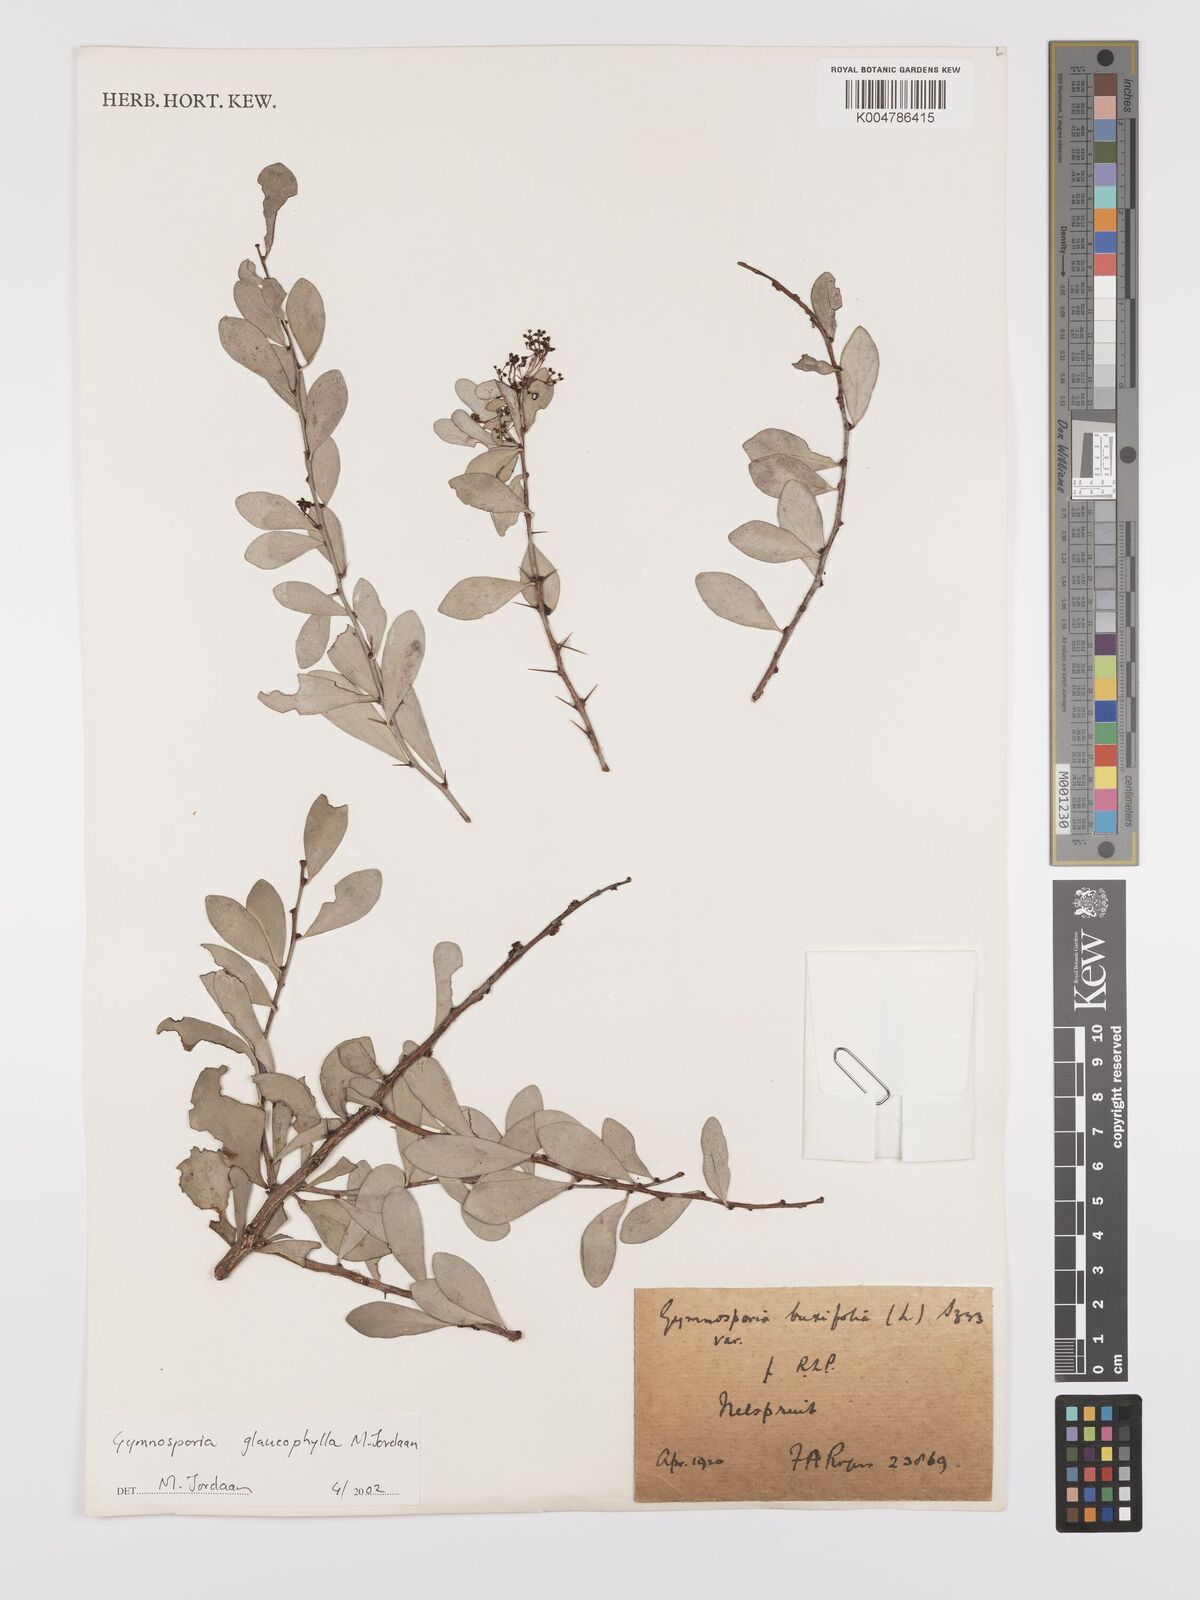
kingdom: Plantae
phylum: Tracheophyta
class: Magnoliopsida
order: Celastrales
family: Celastraceae
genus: Gymnosporia
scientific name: Gymnosporia glaucophylla
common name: Blue spike-thorn
